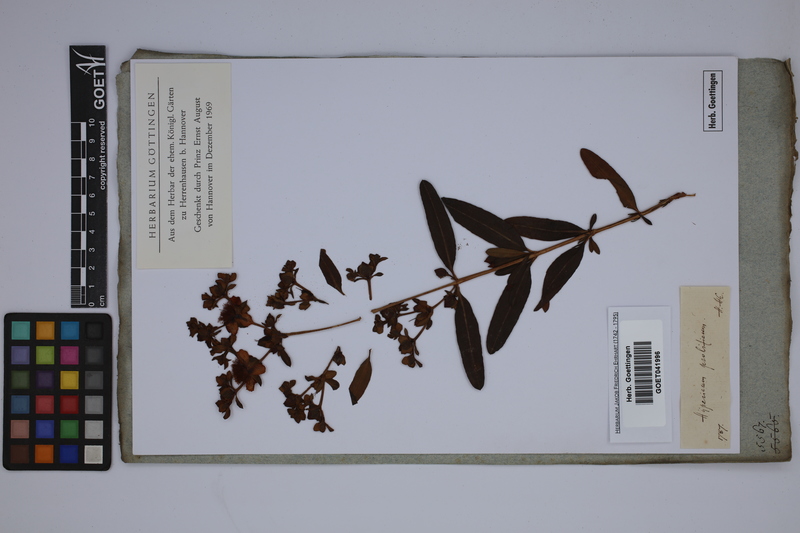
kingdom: Plantae
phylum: Tracheophyta
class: Magnoliopsida
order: Malpighiales
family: Hypericaceae
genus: Hypericum
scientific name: Hypericum prolificum
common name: Shrubby st. john's-wort
